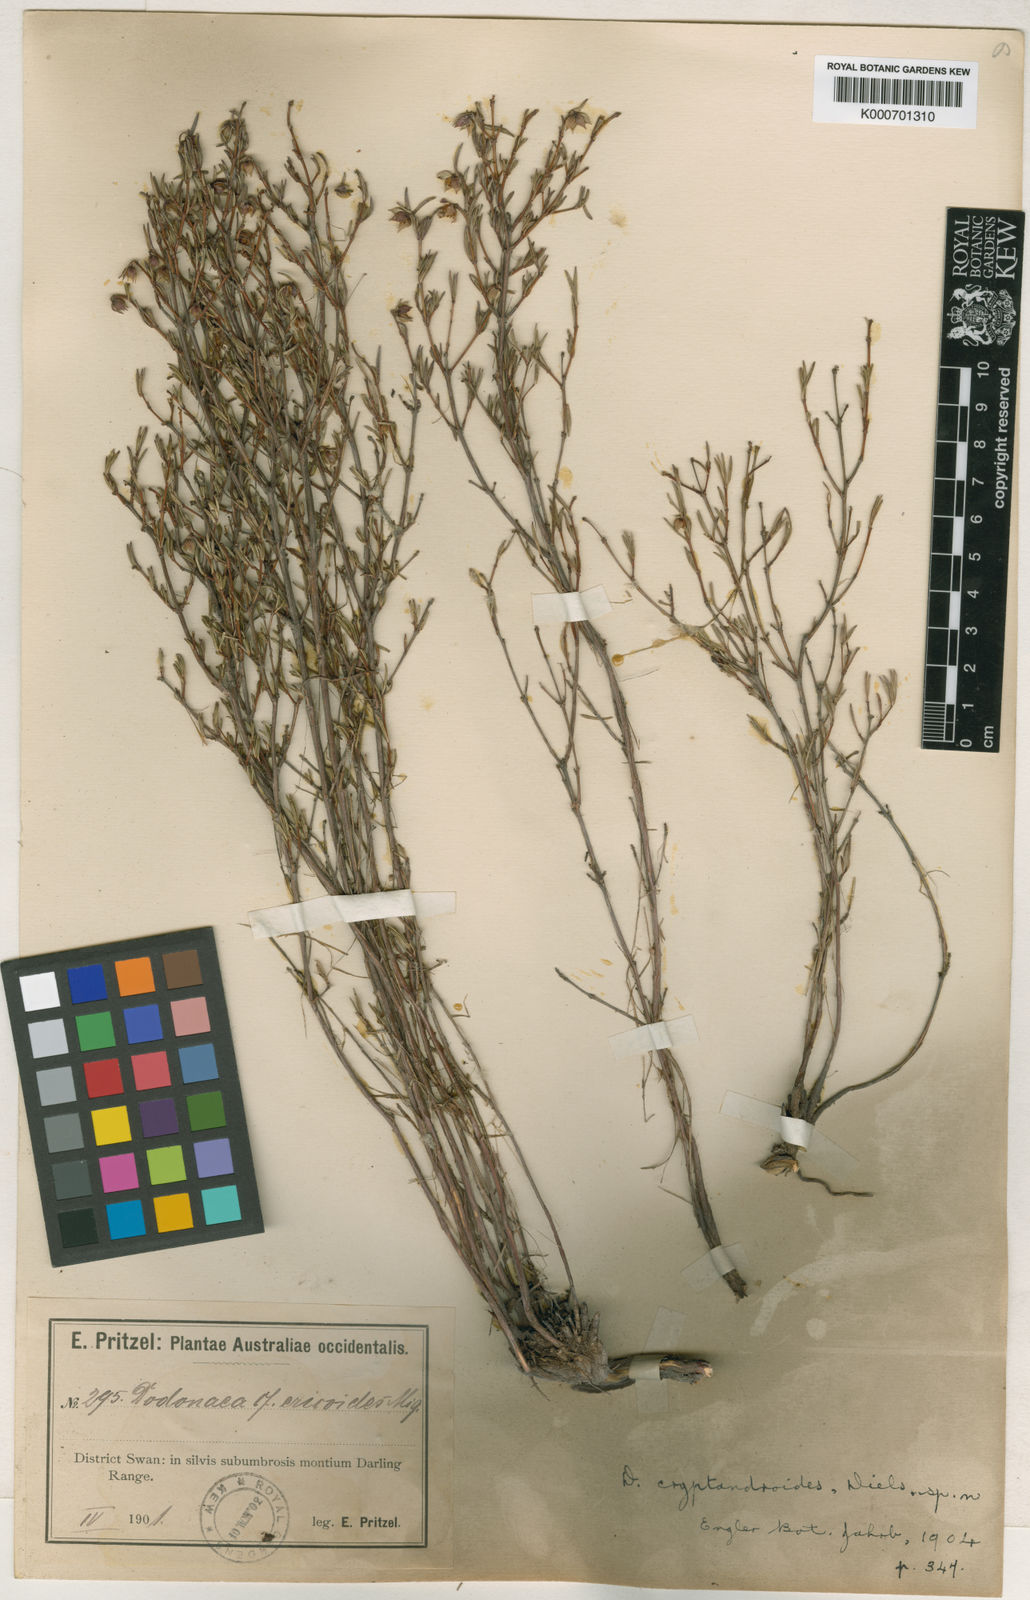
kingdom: Plantae
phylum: Tracheophyta
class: Magnoliopsida
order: Sapindales
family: Sapindaceae
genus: Dodonaea
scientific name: Dodonaea ericoides
